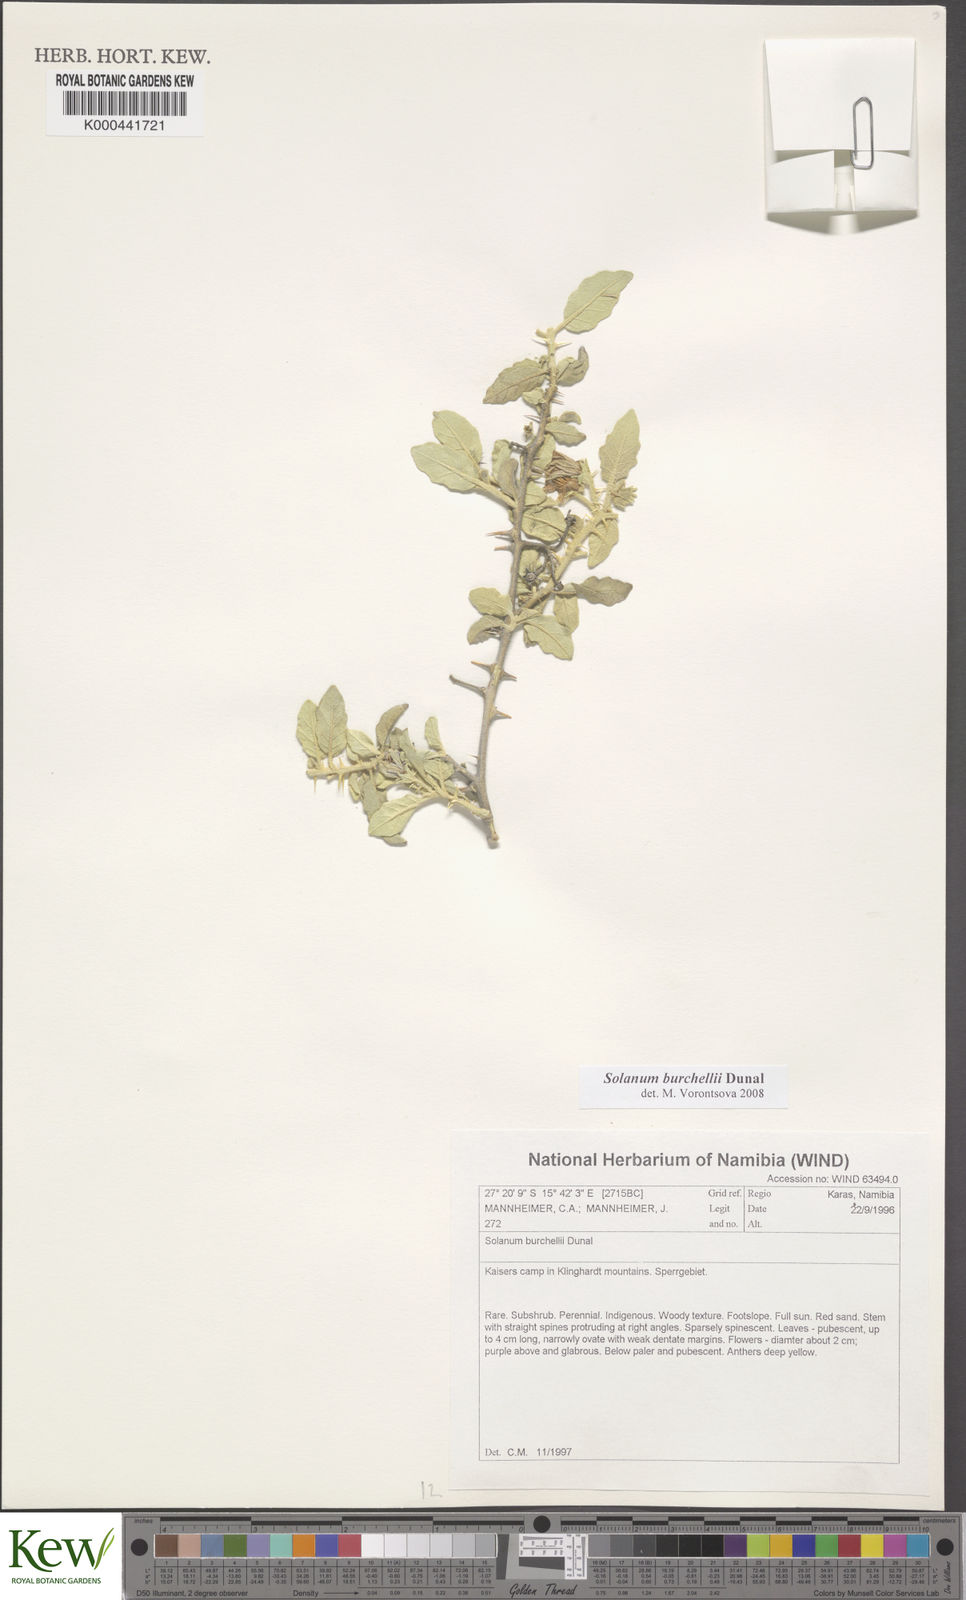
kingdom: Plantae
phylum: Tracheophyta
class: Magnoliopsida
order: Solanales
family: Solanaceae
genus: Solanum
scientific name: Solanum burchellii
